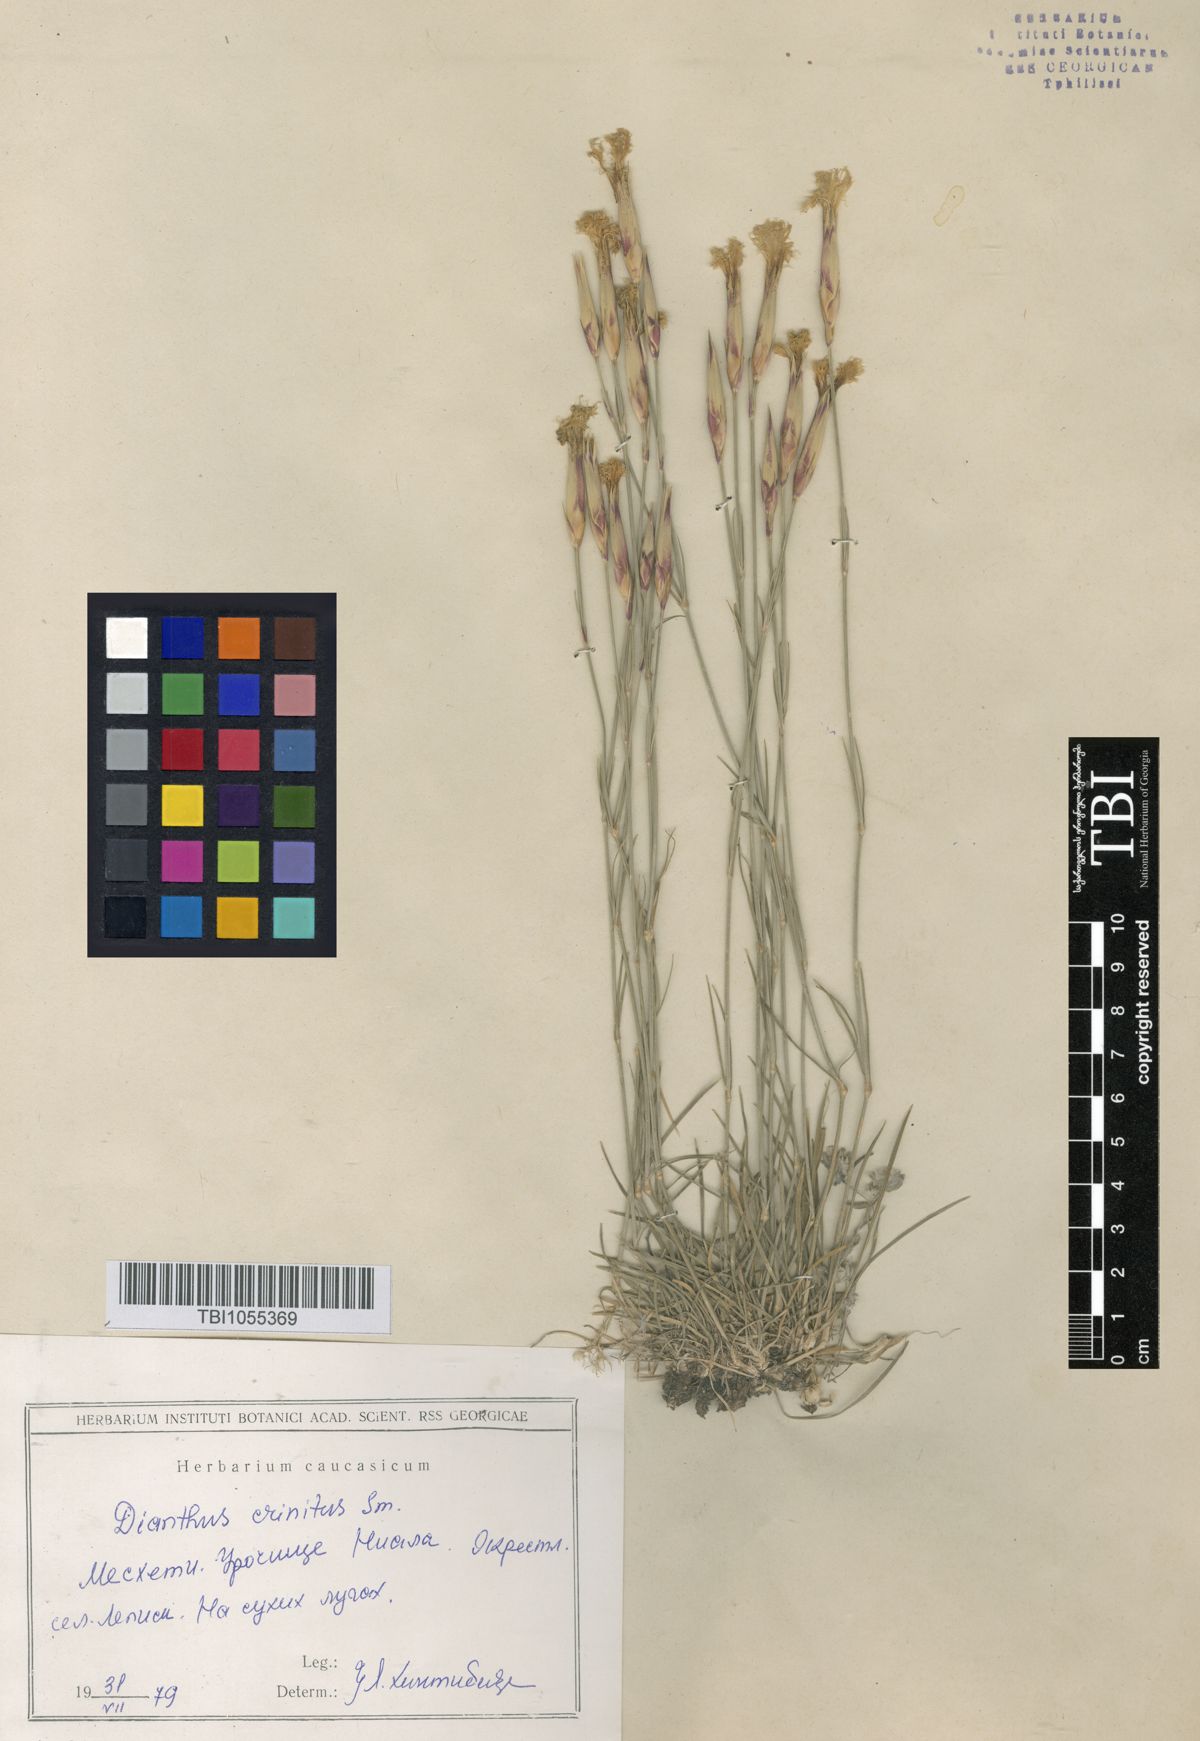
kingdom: Plantae
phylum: Tracheophyta
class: Magnoliopsida
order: Caryophyllales
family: Caryophyllaceae
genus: Dianthus
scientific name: Dianthus crinitus
